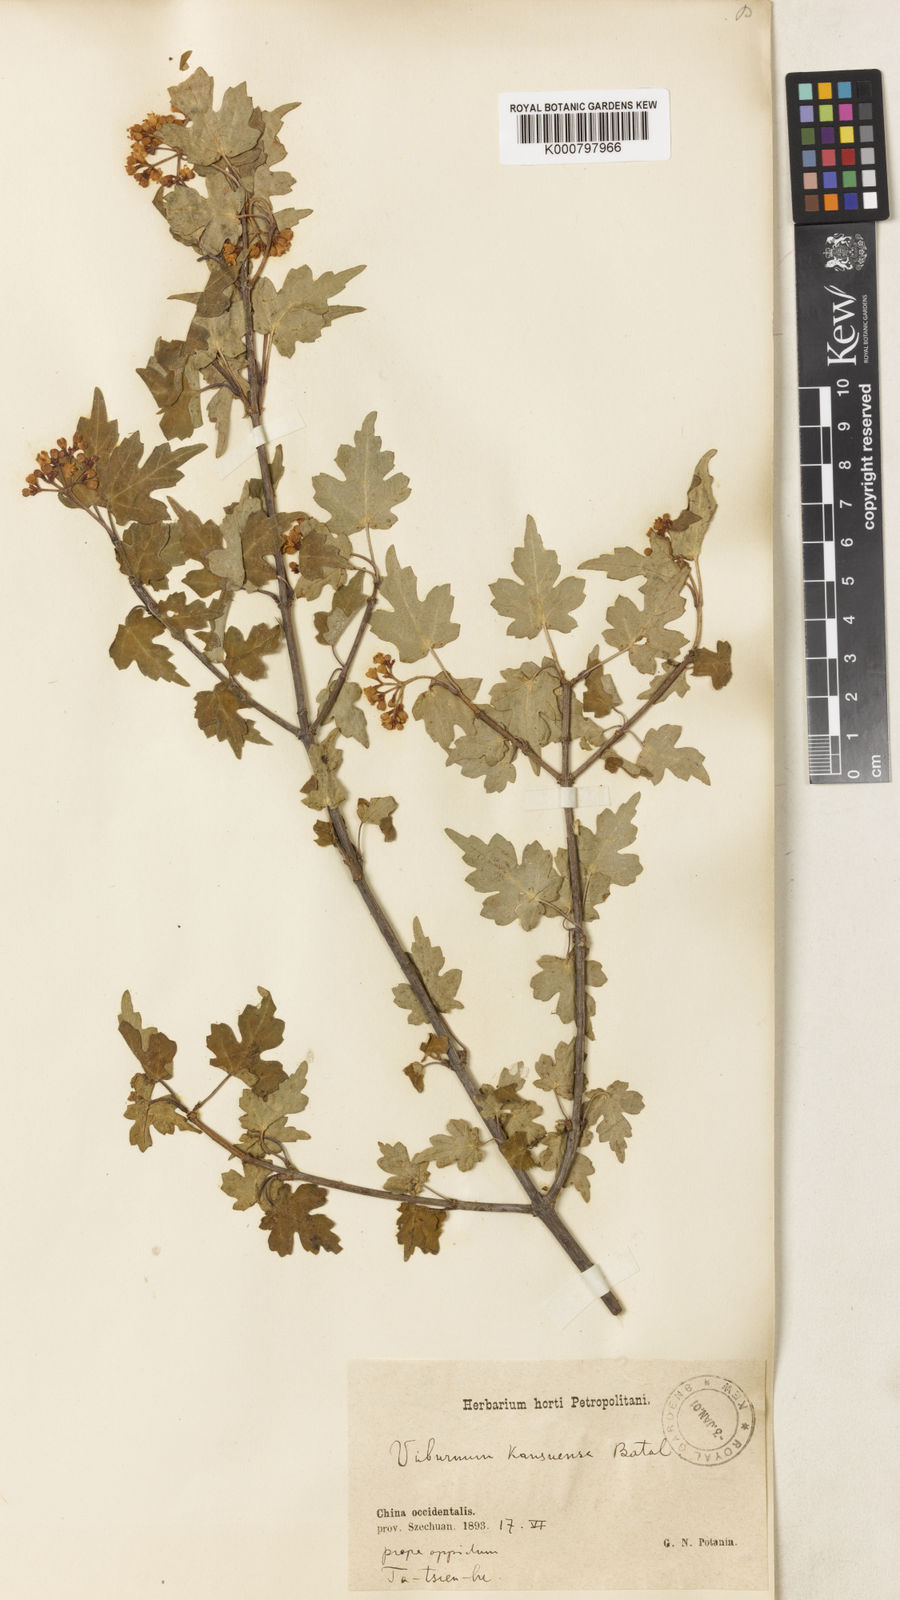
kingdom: Plantae
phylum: Tracheophyta
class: Magnoliopsida
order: Dipsacales
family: Viburnaceae
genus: Viburnum
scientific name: Viburnum kansuense
